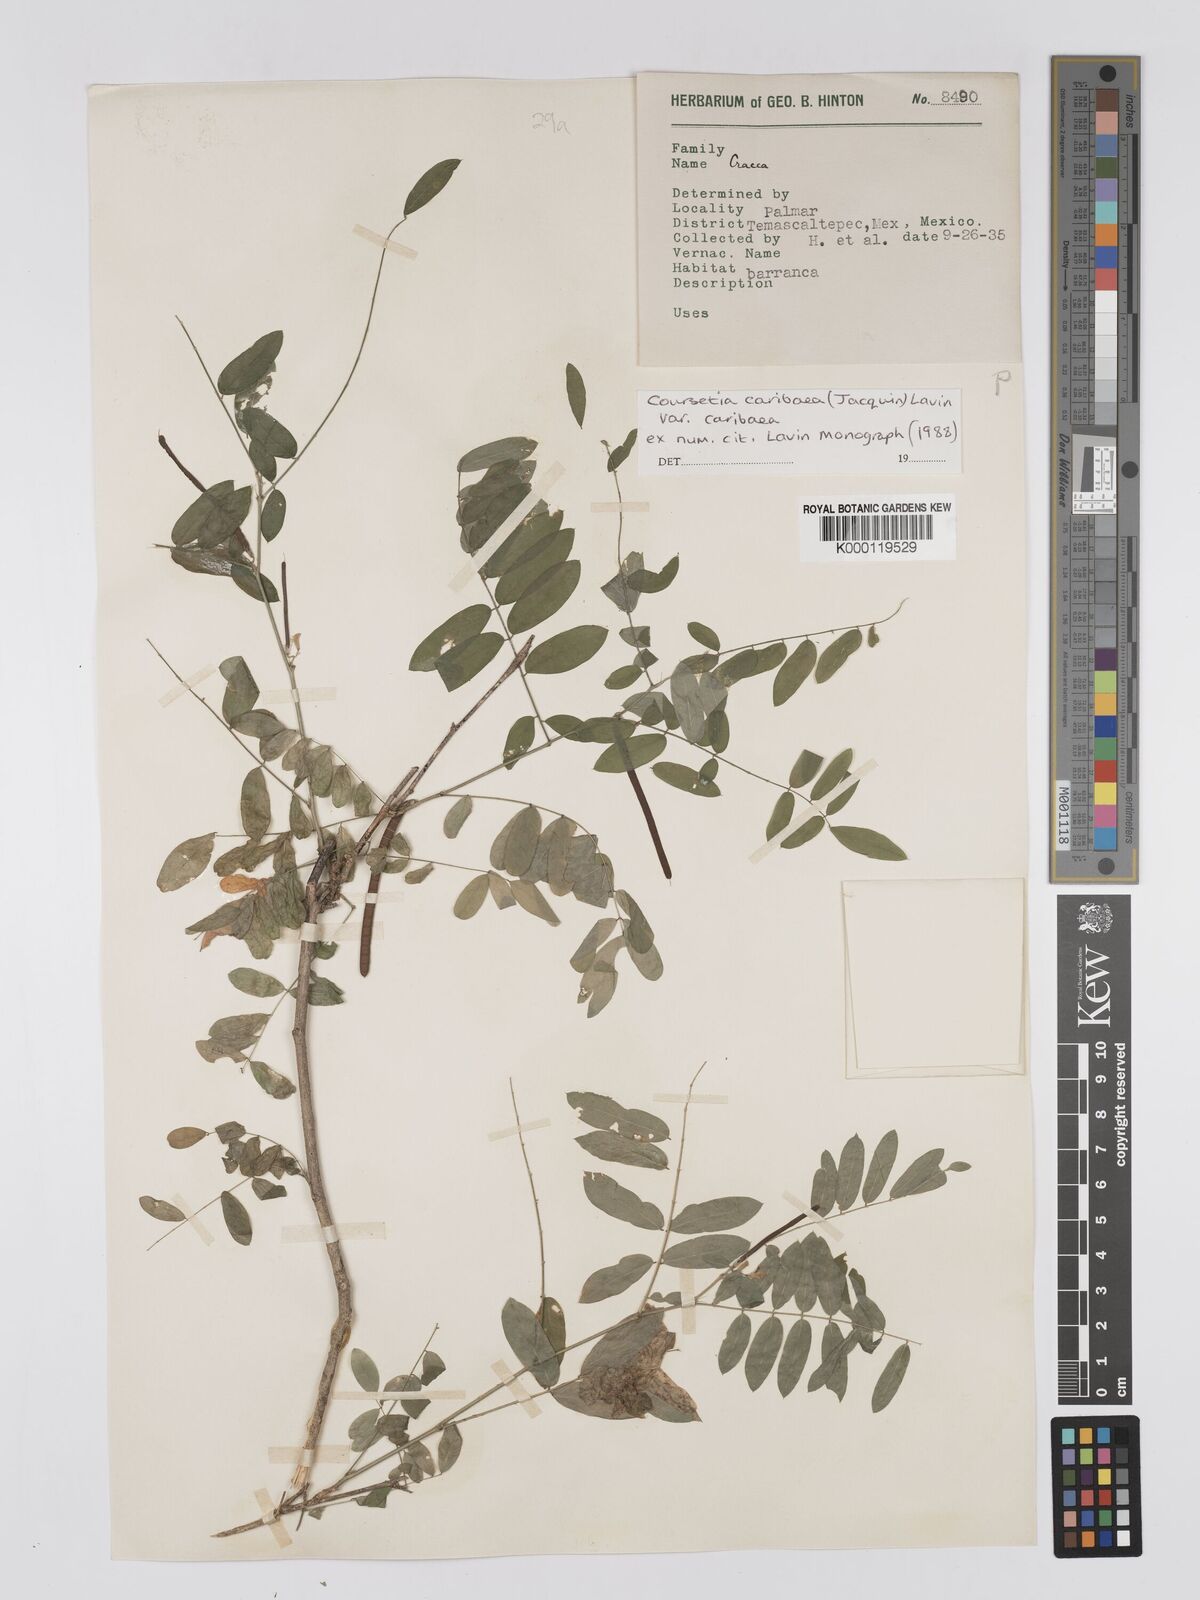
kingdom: Plantae
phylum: Tracheophyta
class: Magnoliopsida
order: Fabales
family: Fabaceae
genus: Coursetia
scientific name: Coursetia caribaea
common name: Anil falso
